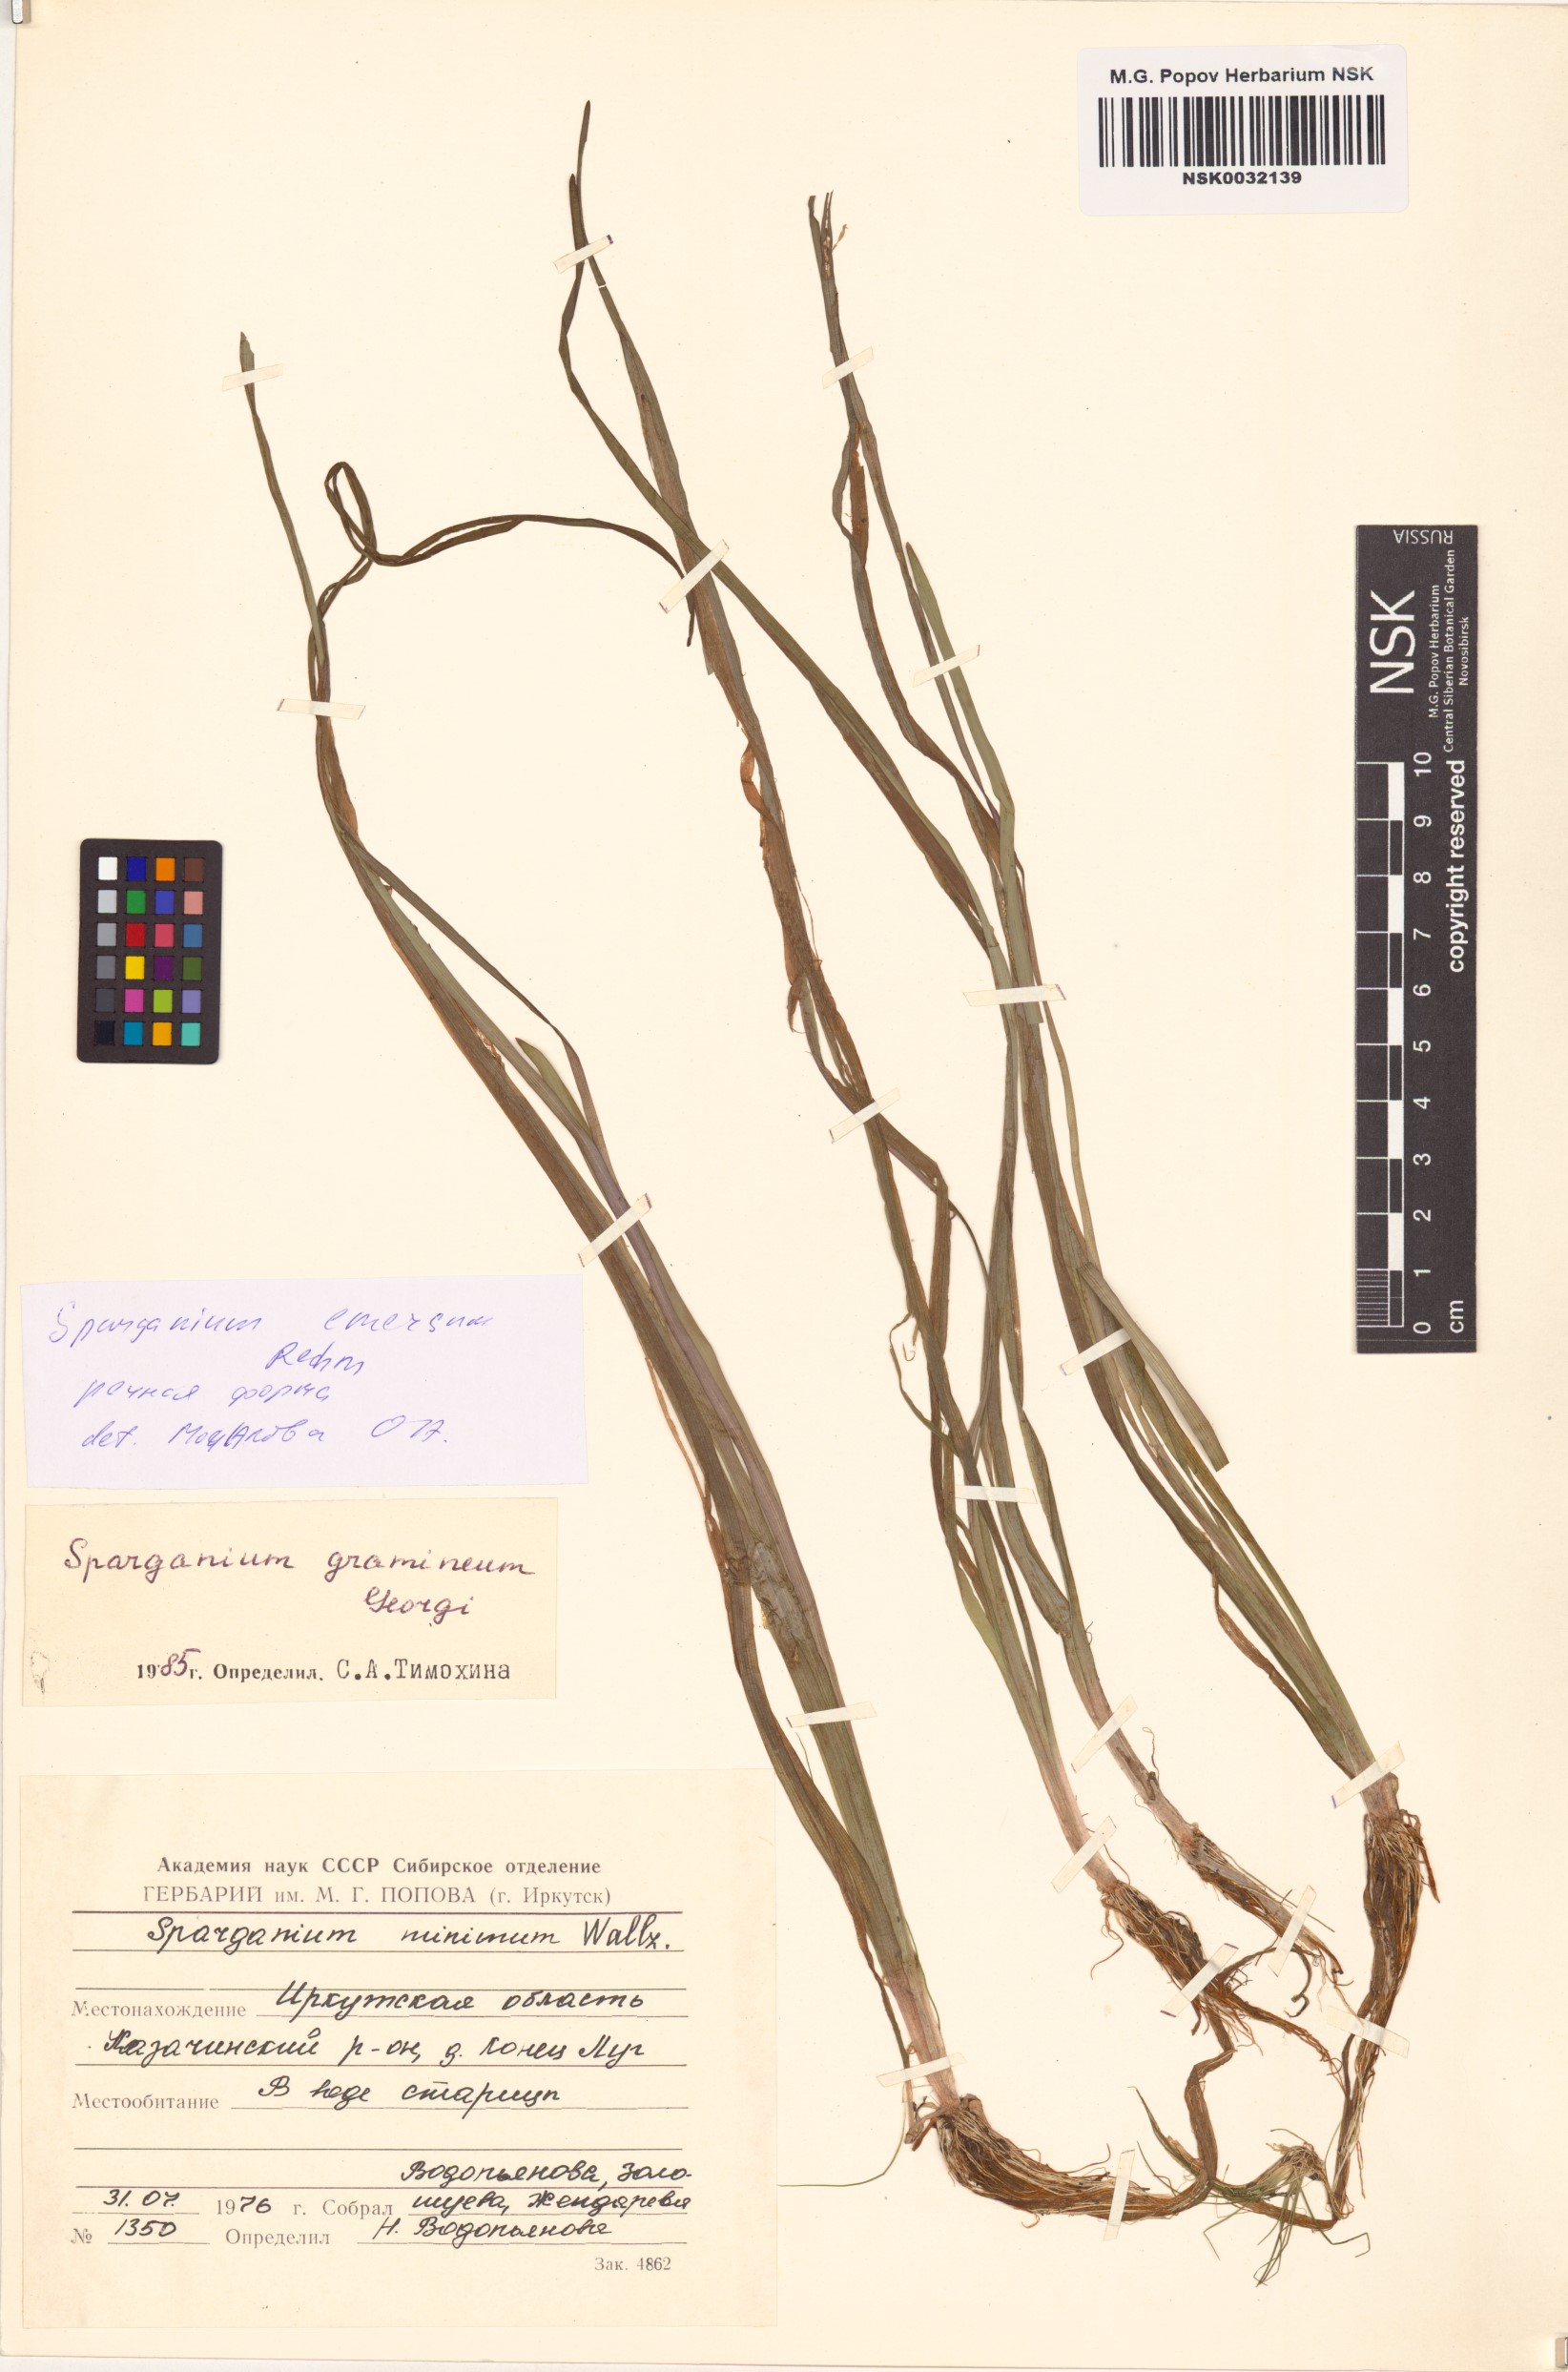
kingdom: Plantae
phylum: Tracheophyta
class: Liliopsida
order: Poales
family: Typhaceae
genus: Sparganium
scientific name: Sparganium emersum
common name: Unbranched bur-reed
